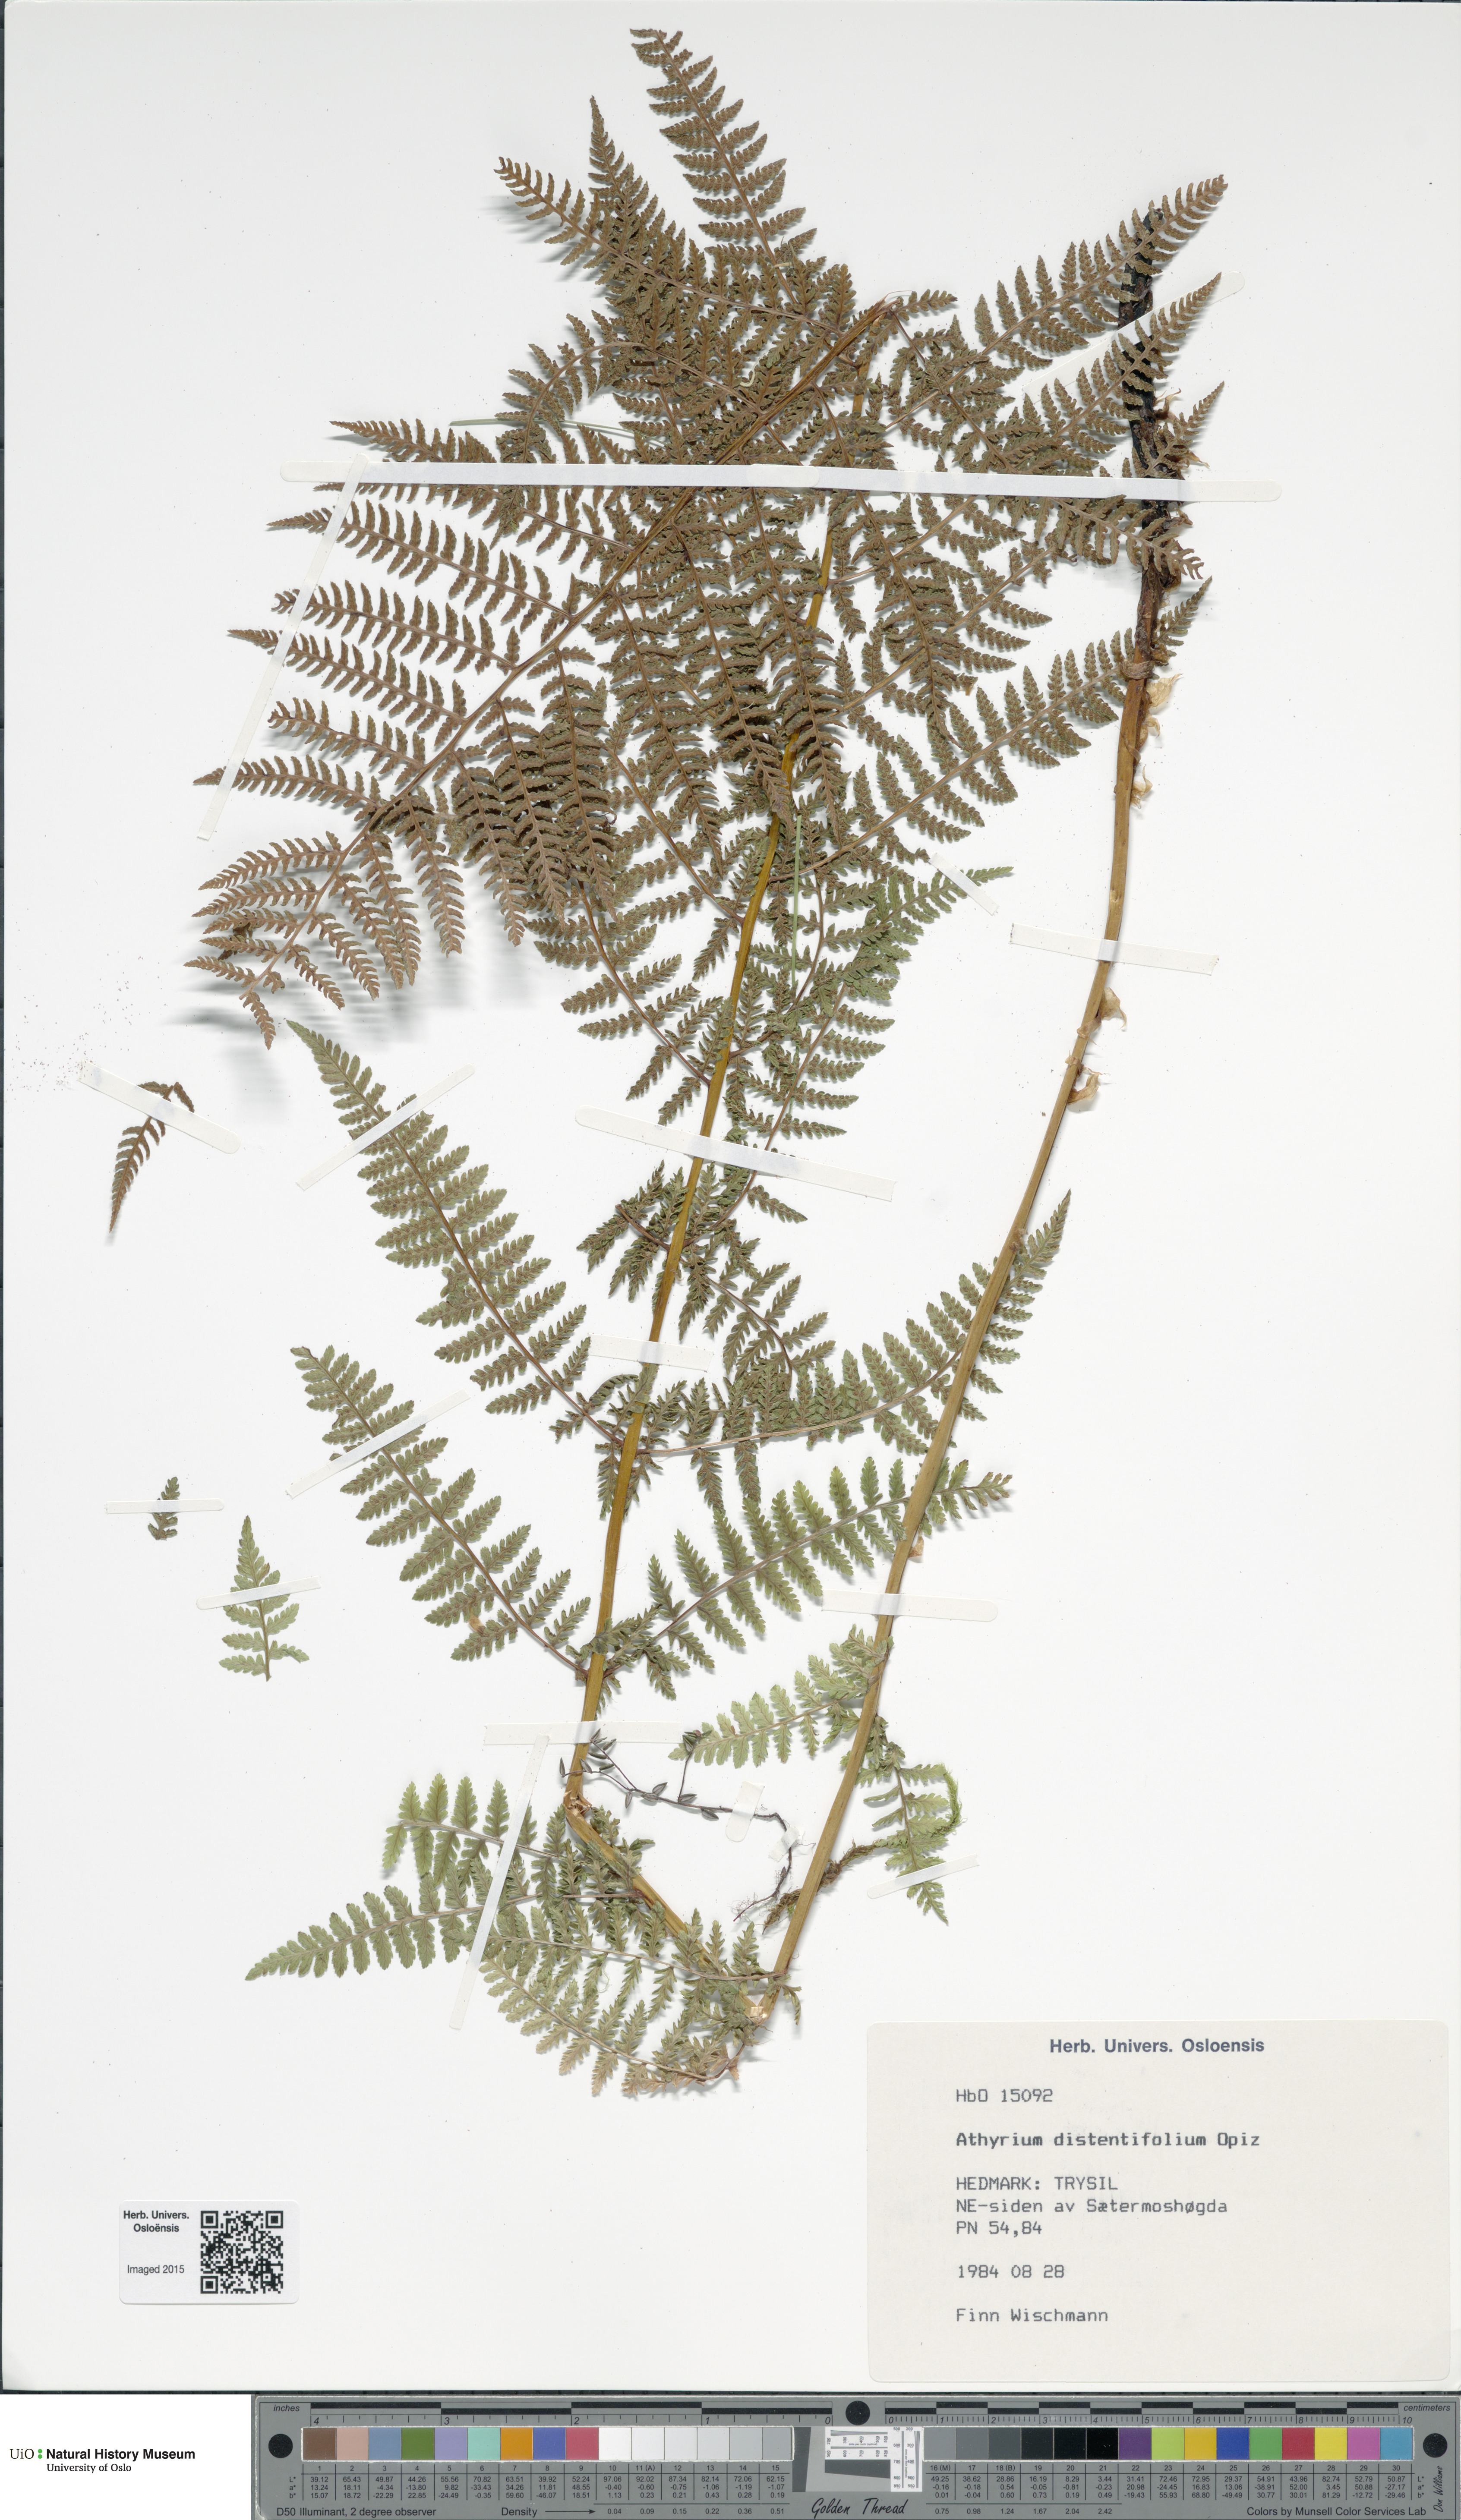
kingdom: Plantae
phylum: Tracheophyta
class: Polypodiopsida
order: Polypodiales
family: Athyriaceae
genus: Pseudathyrium
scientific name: Pseudathyrium alpestre
